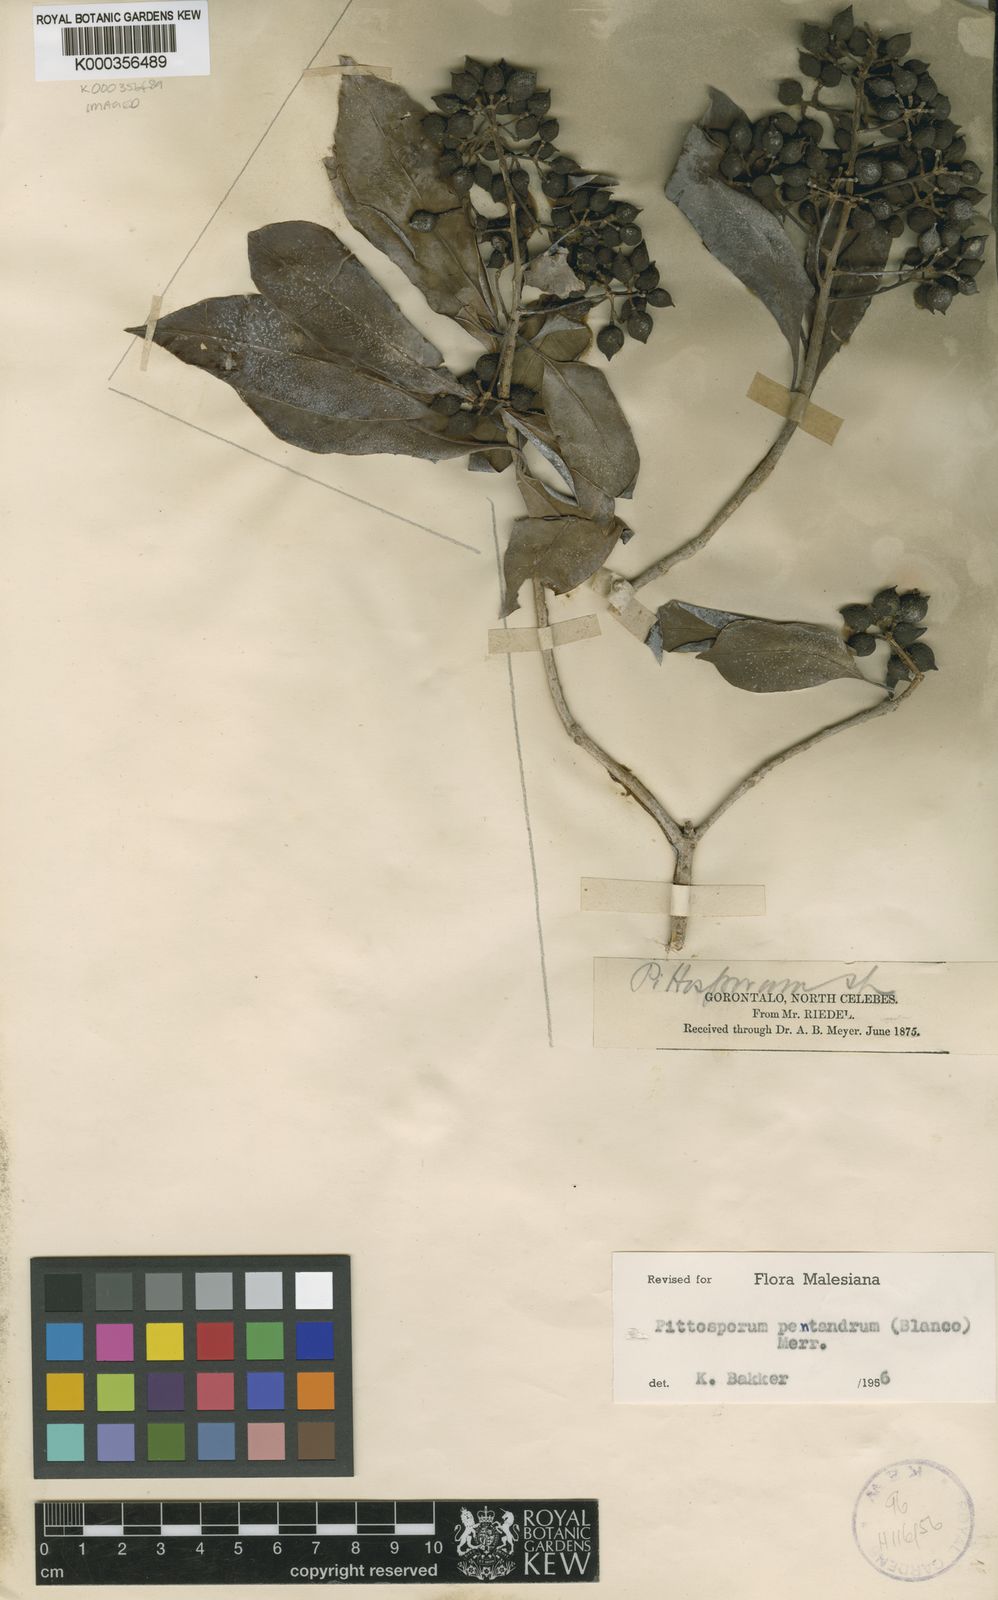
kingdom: Plantae
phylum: Tracheophyta
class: Magnoliopsida
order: Apiales
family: Pittosporaceae
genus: Pittosporum
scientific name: Pittosporum pentandrum
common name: Taiwanese cheesewood
